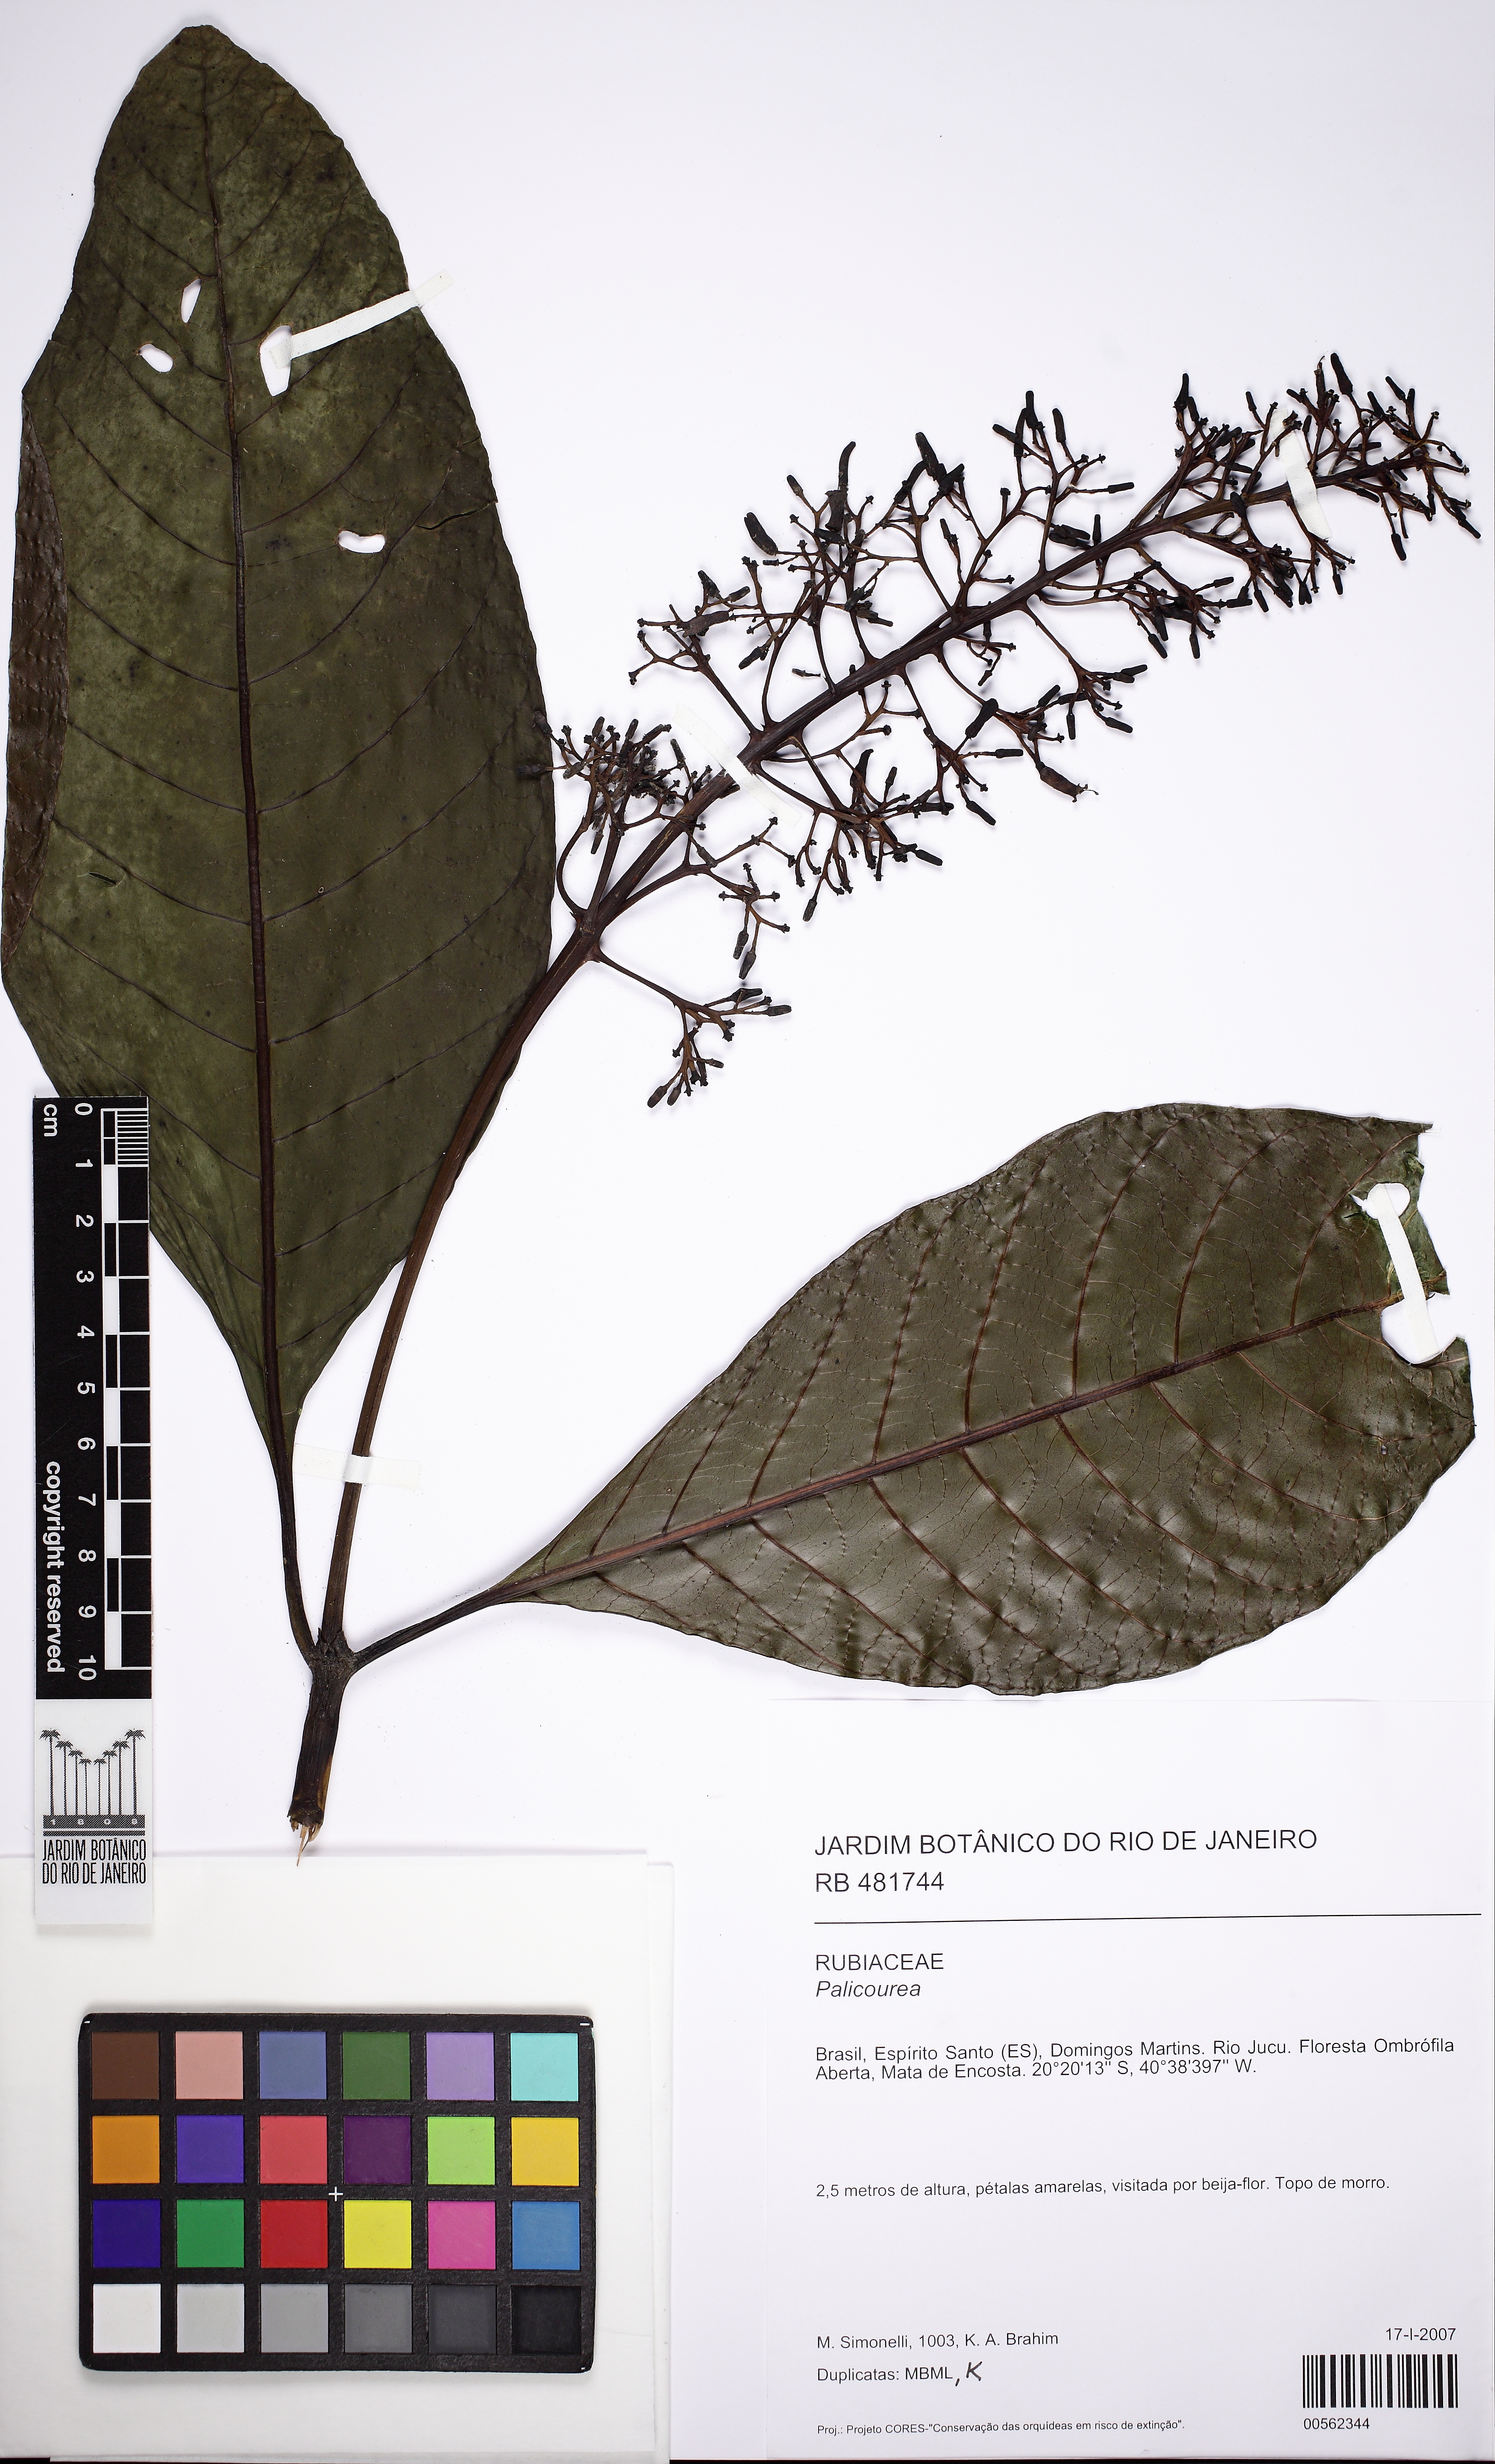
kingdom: Plantae
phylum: Tracheophyta
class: Magnoliopsida
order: Gentianales
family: Rubiaceae
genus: Palicourea
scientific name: Palicourea
